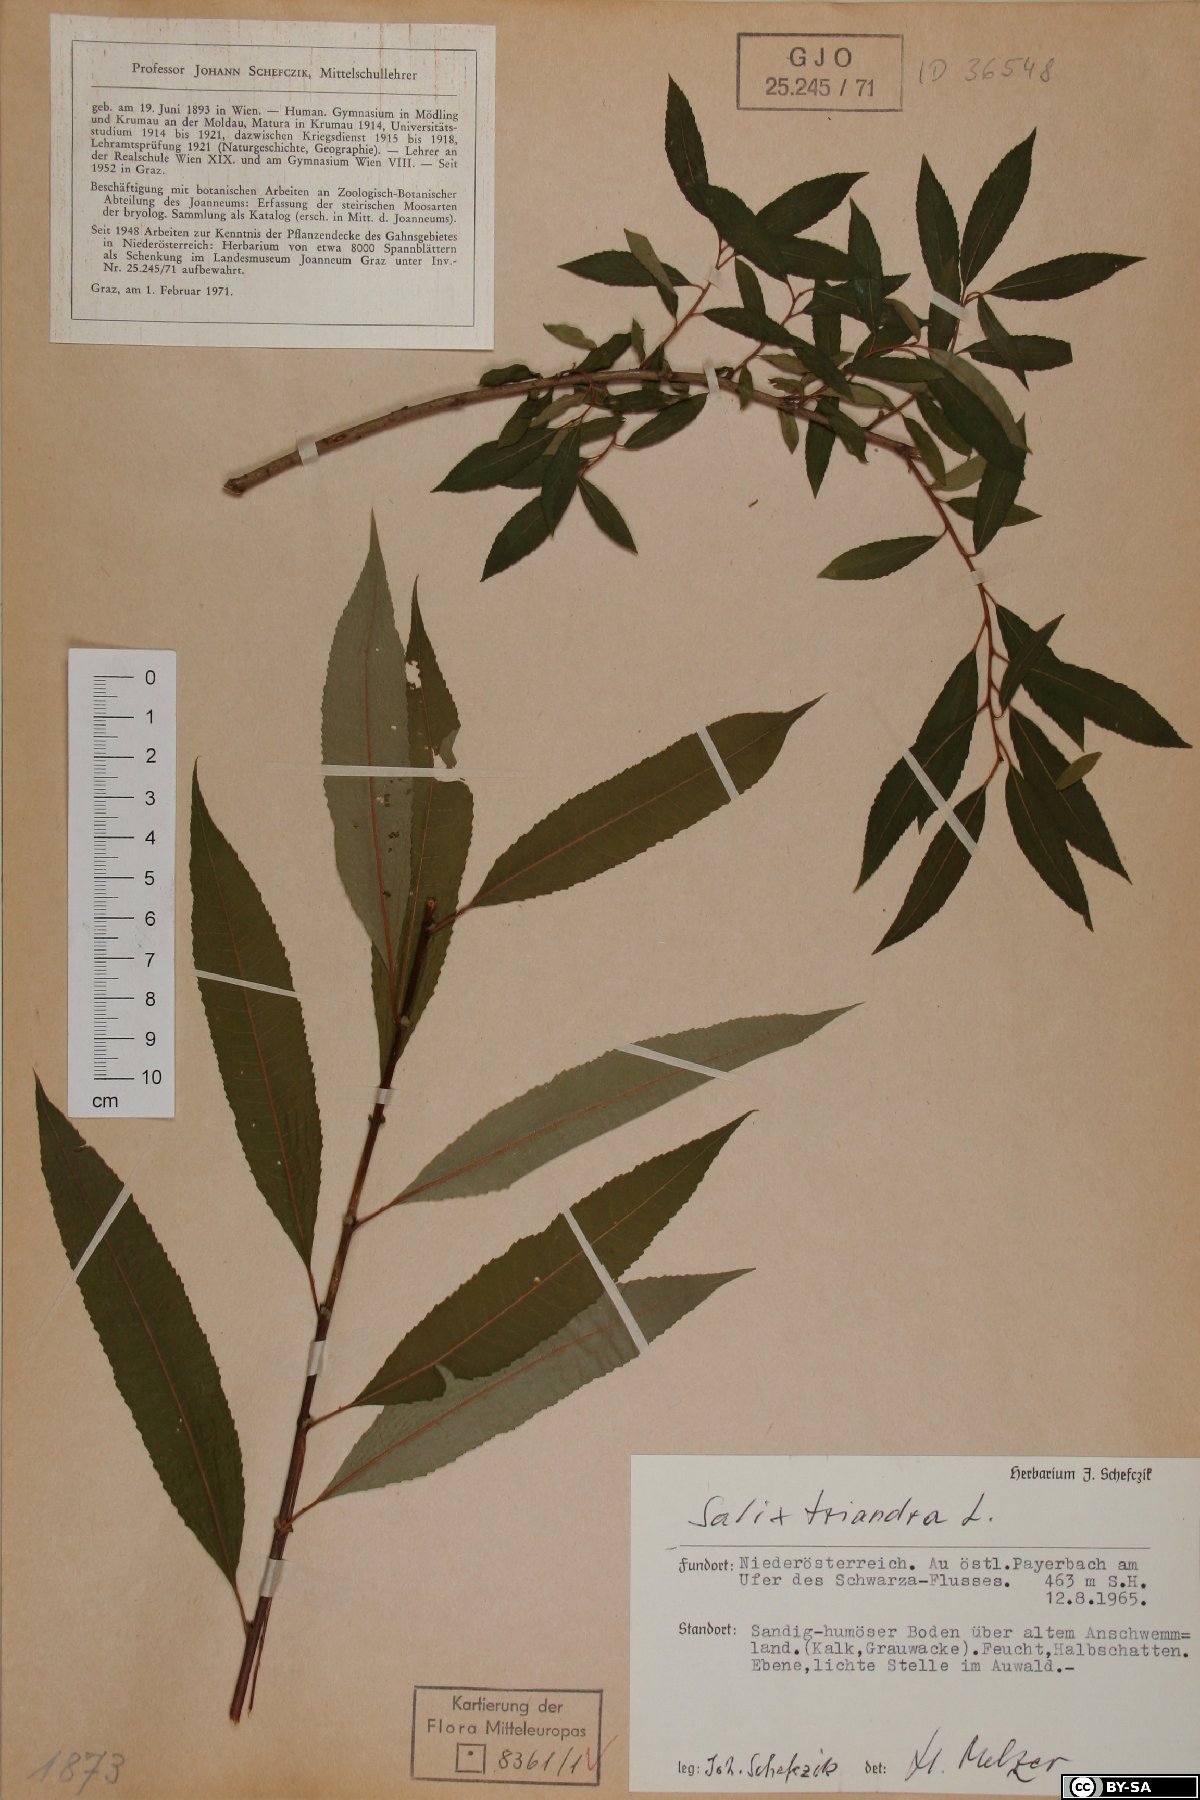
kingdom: Plantae
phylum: Tracheophyta
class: Magnoliopsida
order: Malpighiales
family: Salicaceae
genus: Salix
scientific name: Salix triandra
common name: Almond willow
